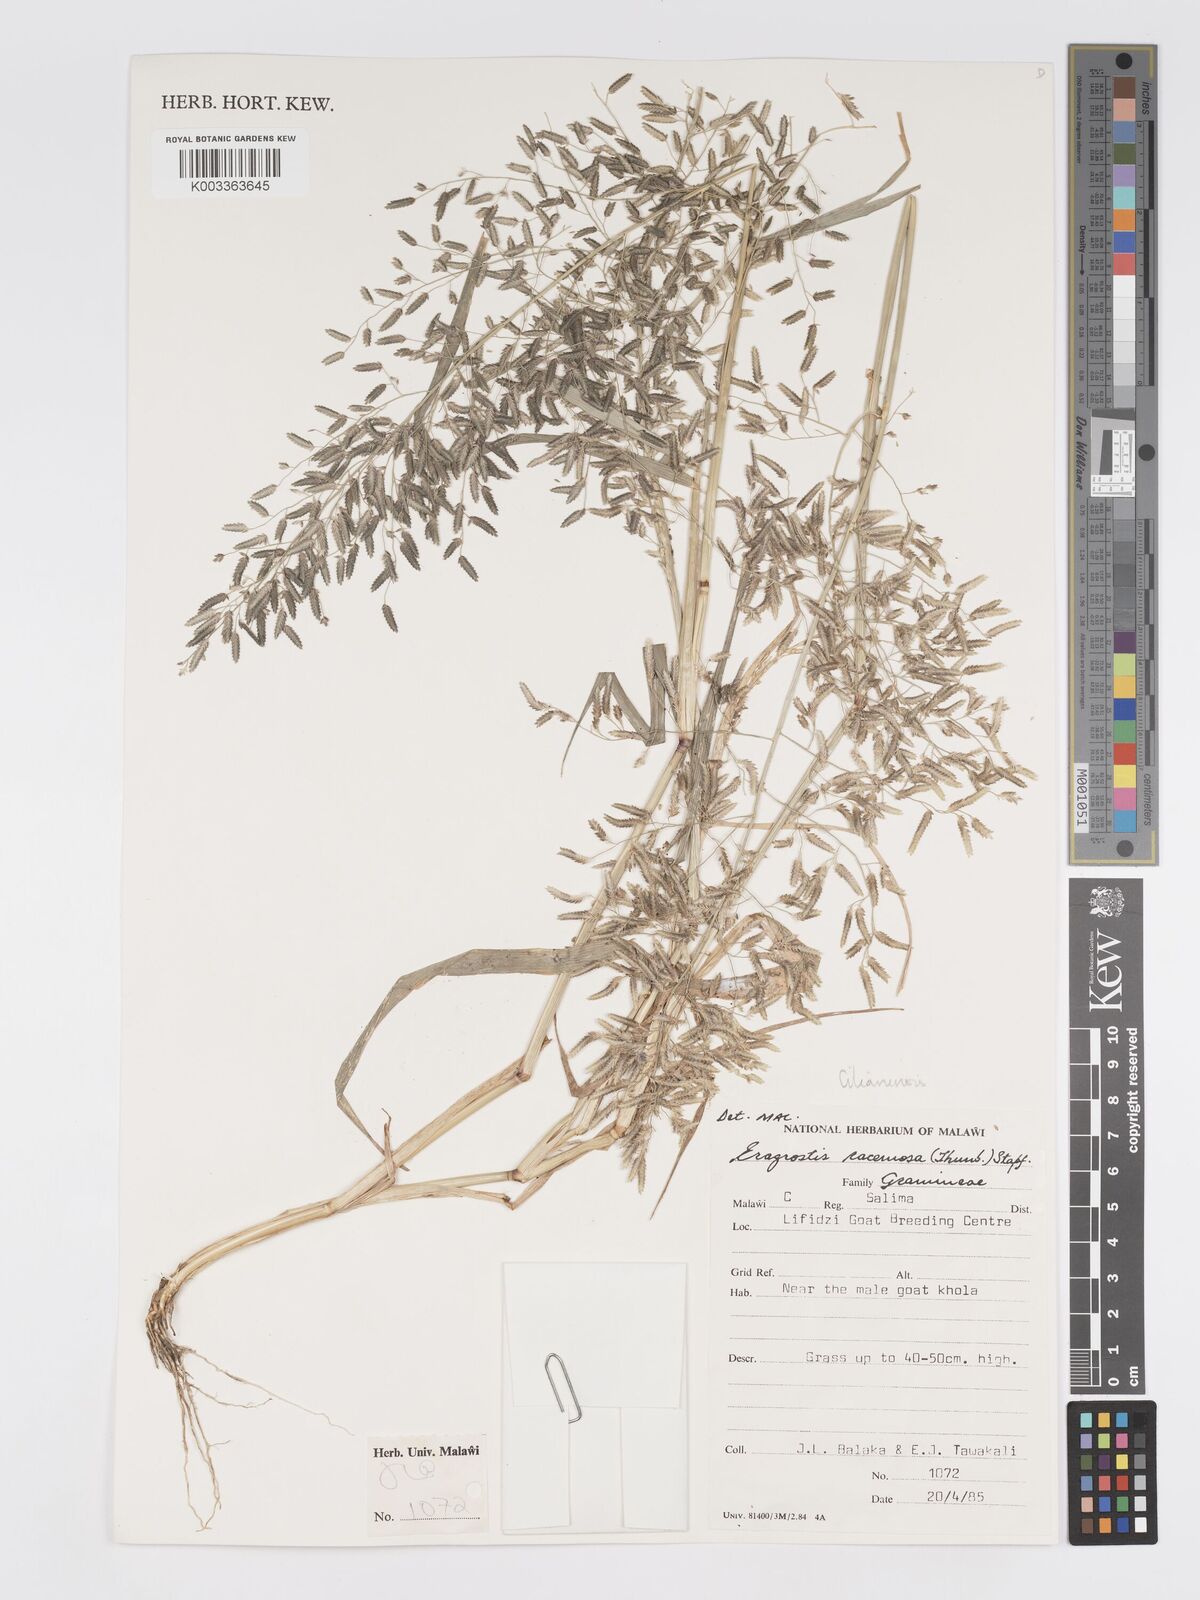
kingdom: Plantae
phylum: Tracheophyta
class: Liliopsida
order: Poales
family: Poaceae
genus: Eragrostis
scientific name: Eragrostis cilianensis
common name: Stinkgrass
